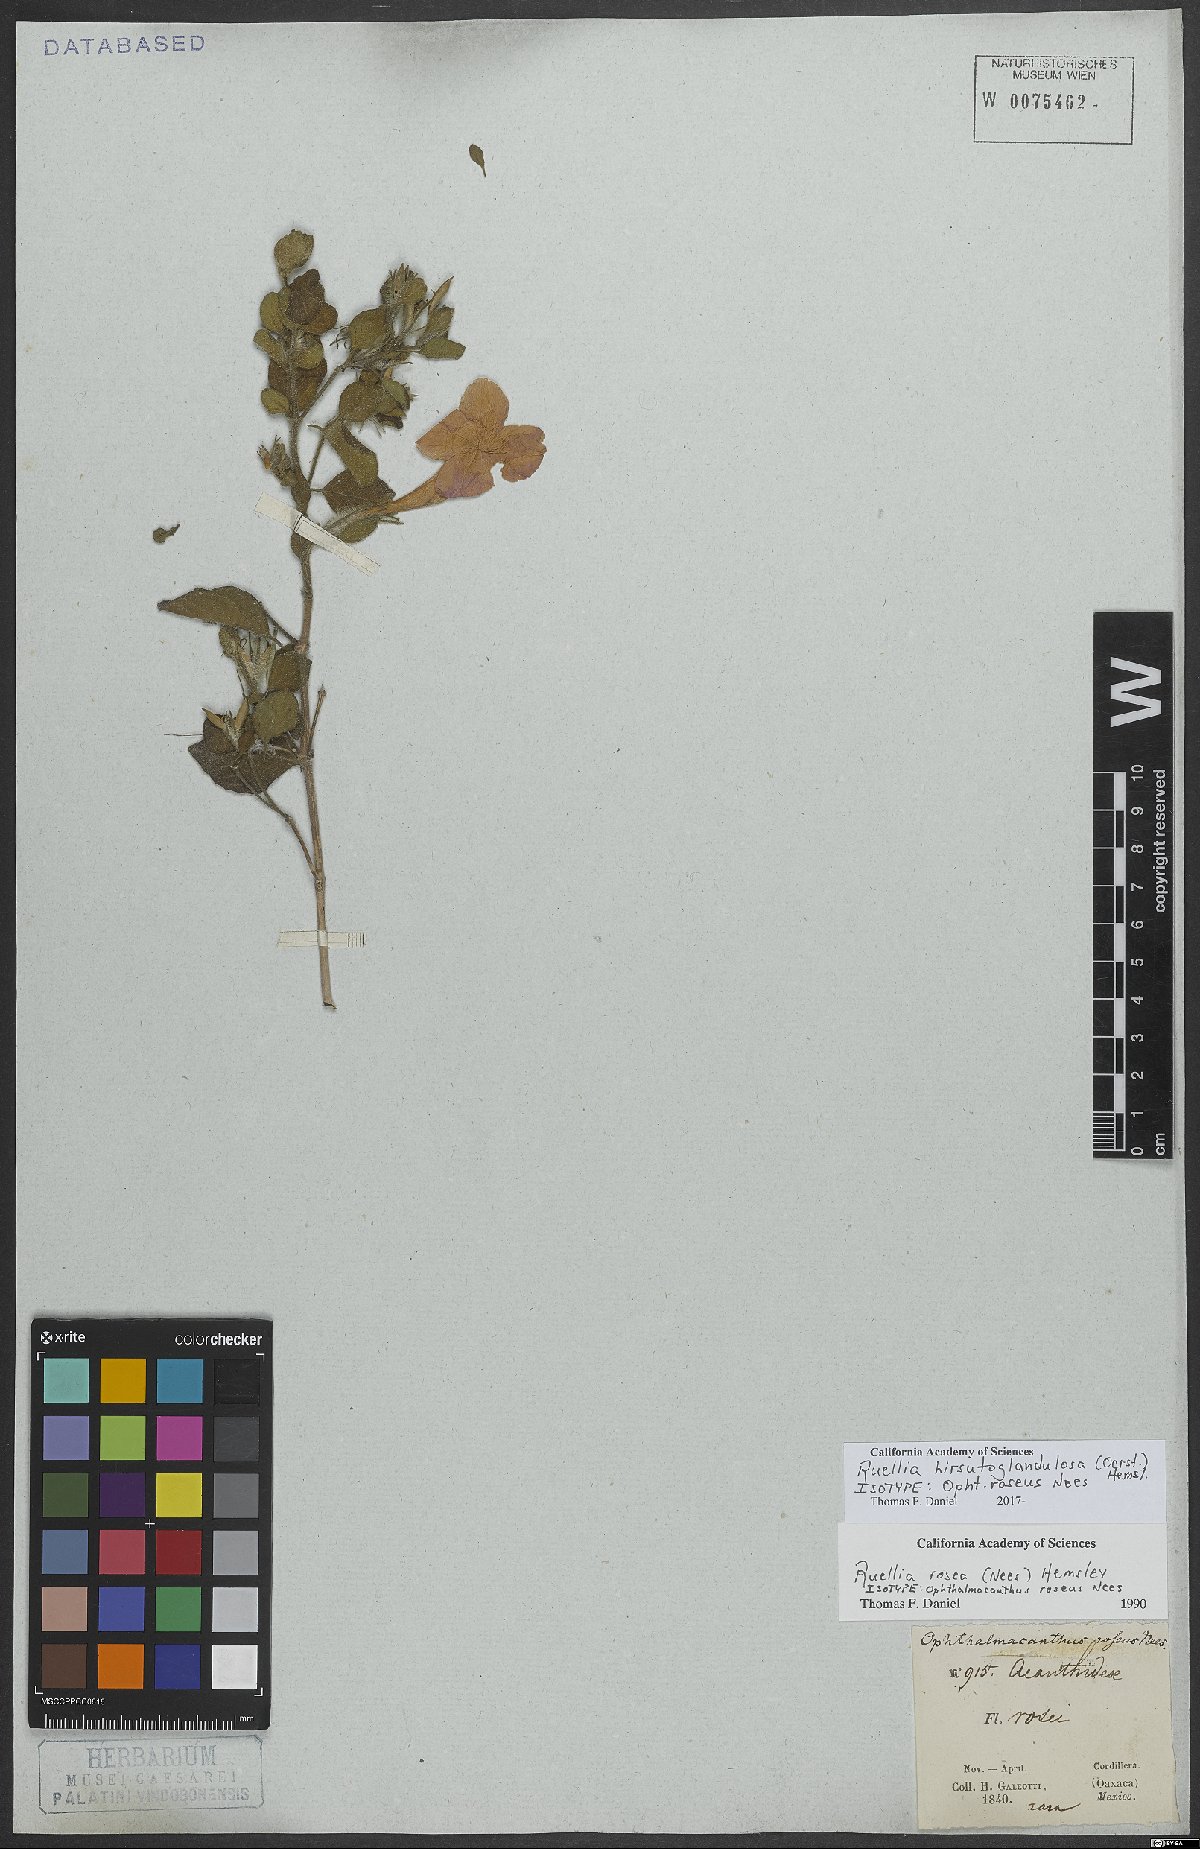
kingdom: Plantae
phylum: Tracheophyta
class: Magnoliopsida
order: Lamiales
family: Acanthaceae
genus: Ruellia
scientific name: Ruellia hirsutoglandulosa
